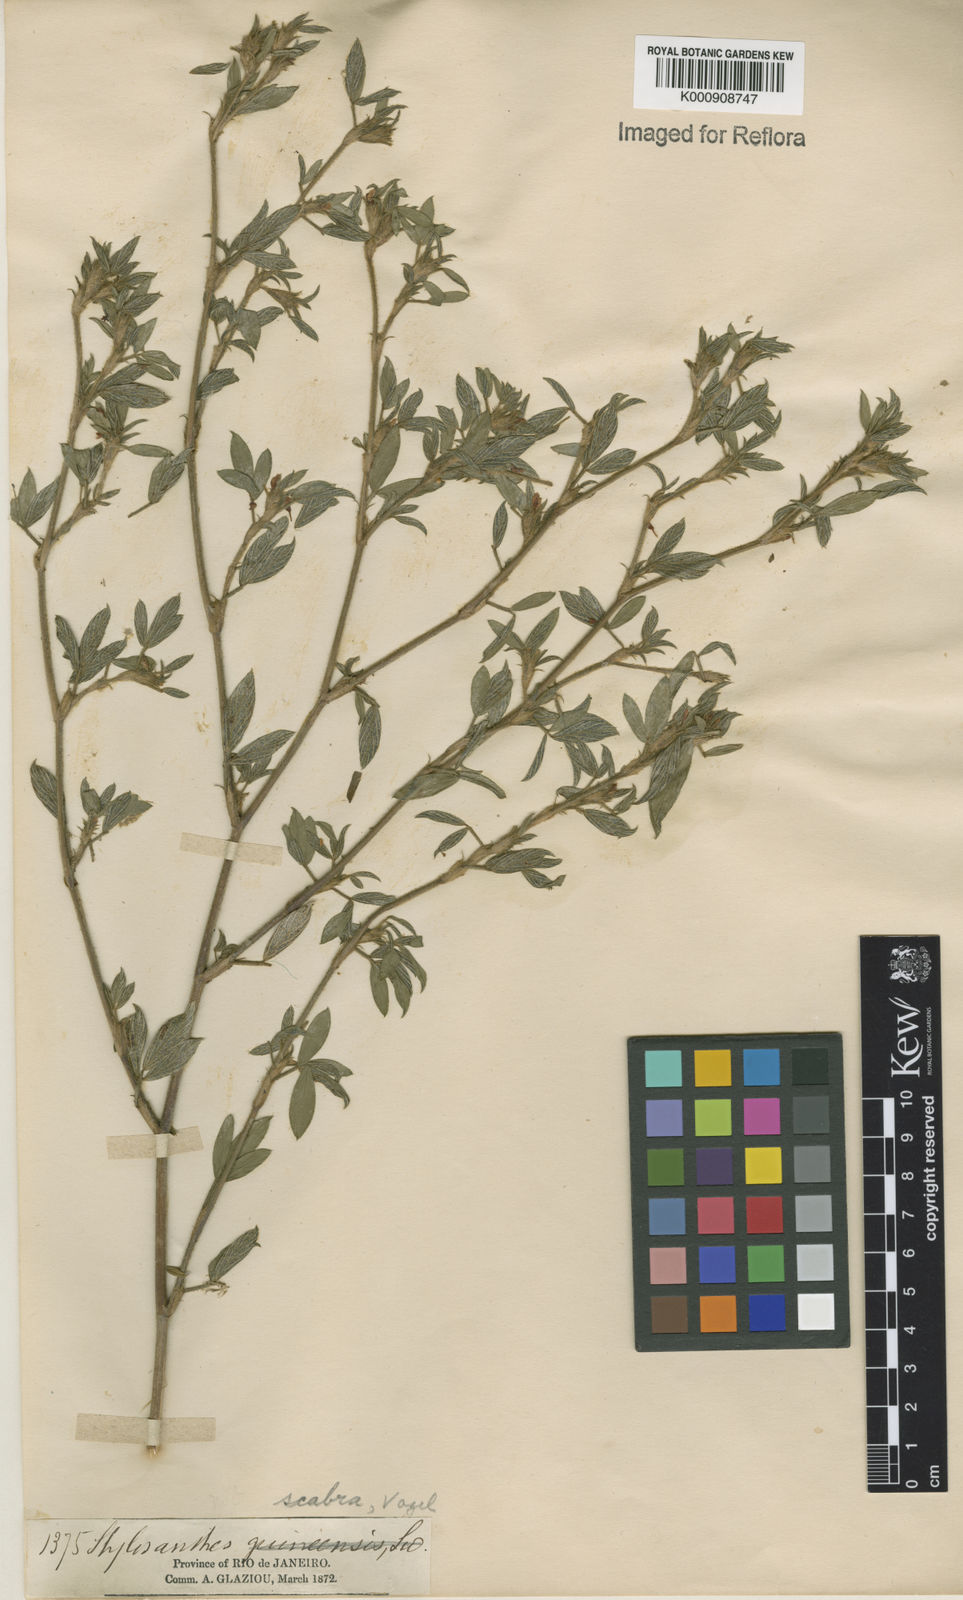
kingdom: Plantae
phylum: Tracheophyta
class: Magnoliopsida
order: Fabales
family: Fabaceae
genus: Stylosanthes
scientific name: Stylosanthes scabra
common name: Pencilflower
